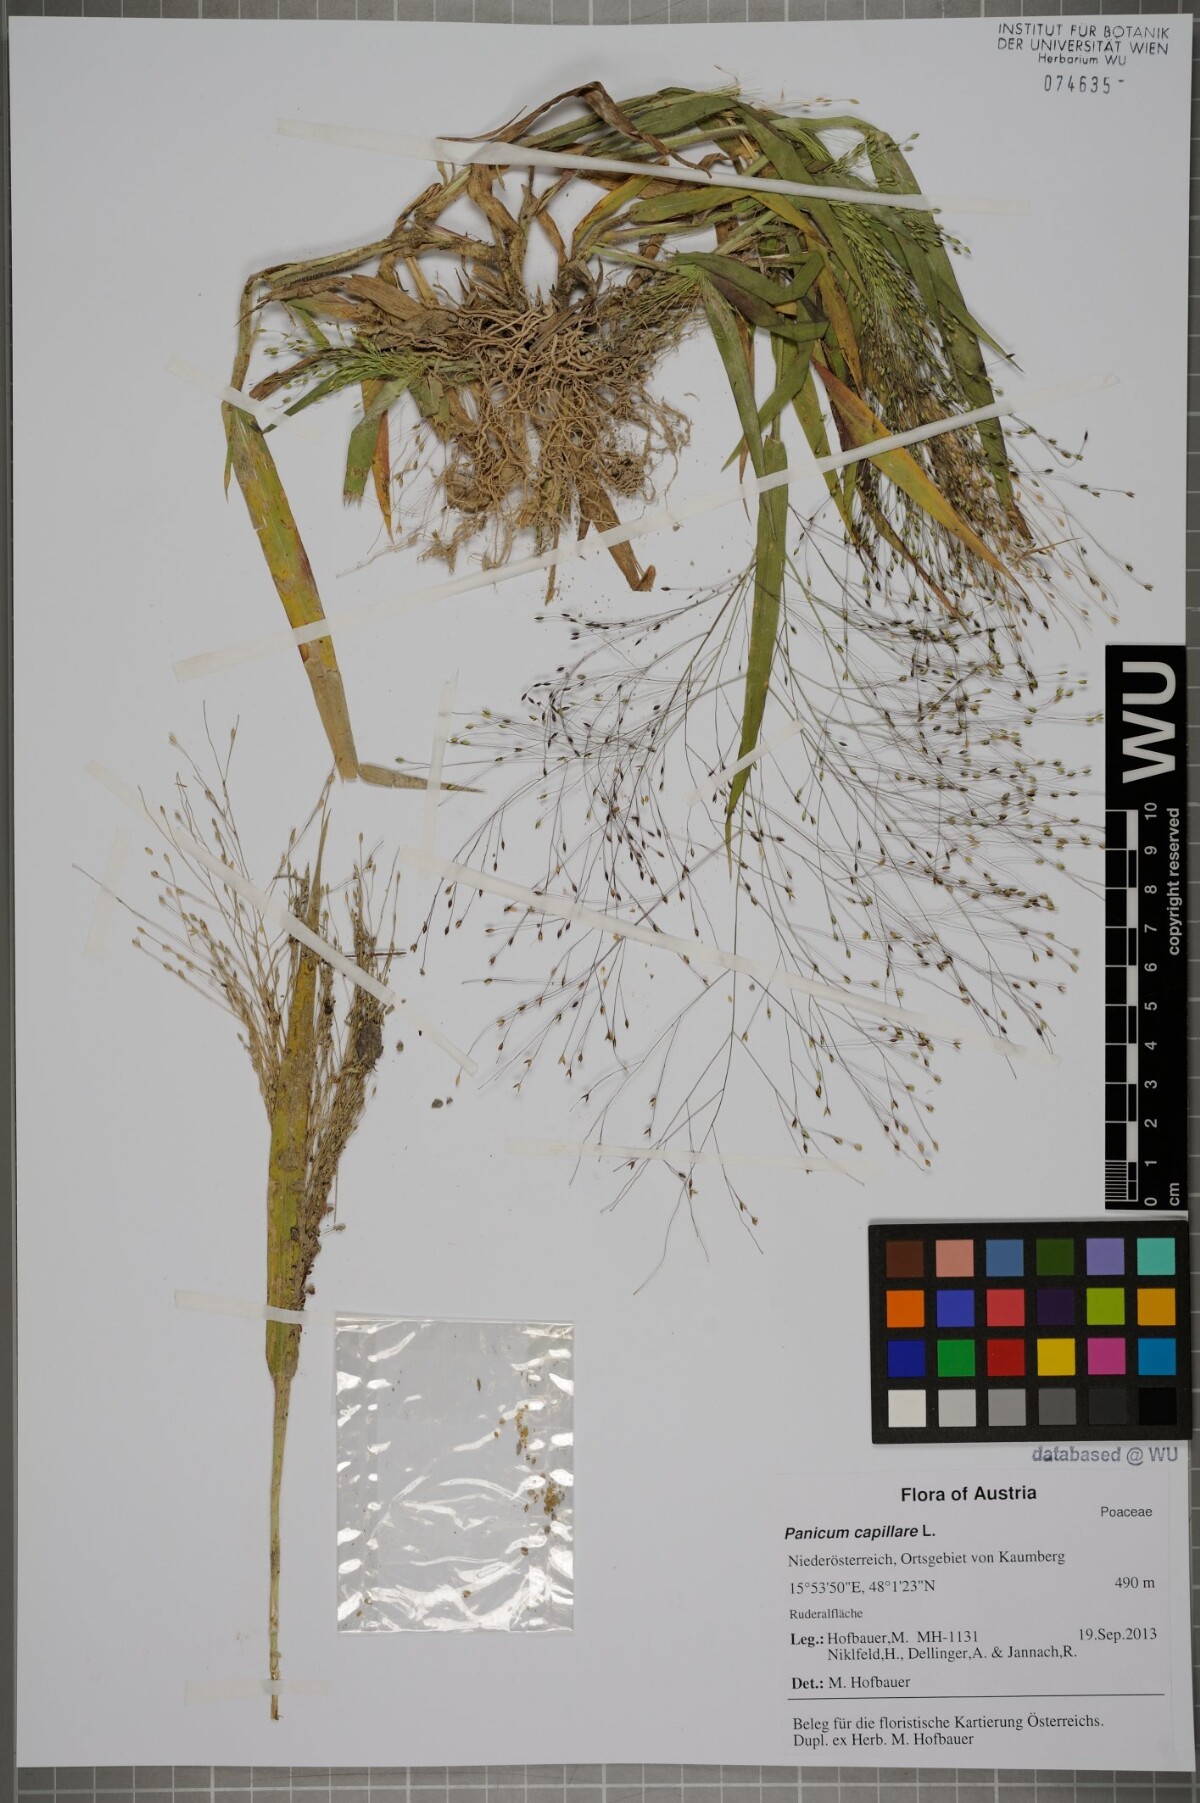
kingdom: Plantae
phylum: Tracheophyta
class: Liliopsida
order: Poales
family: Poaceae
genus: Panicum
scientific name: Panicum capillare
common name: Witch-grass
